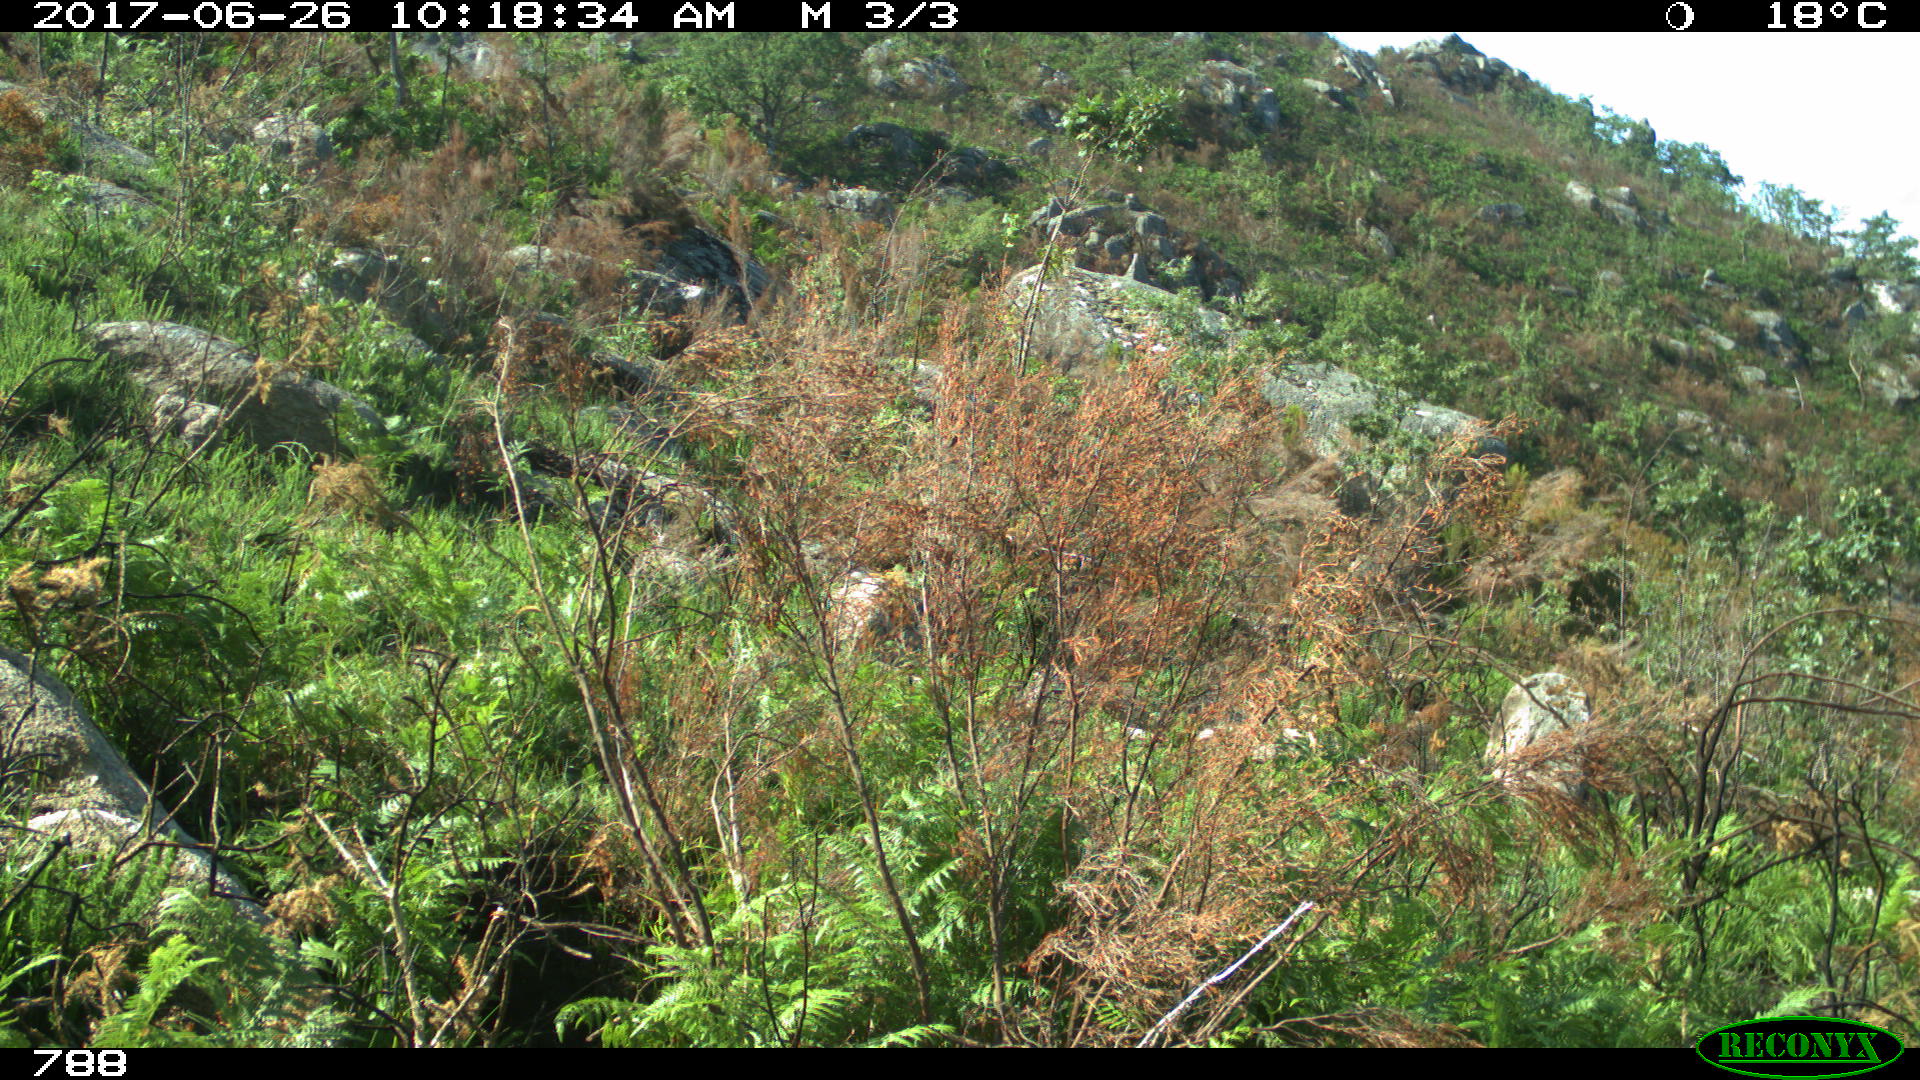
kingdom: Animalia
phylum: Chordata
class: Mammalia
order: Artiodactyla
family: Bovidae
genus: Bos
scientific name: Bos taurus
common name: Domesticated cattle
